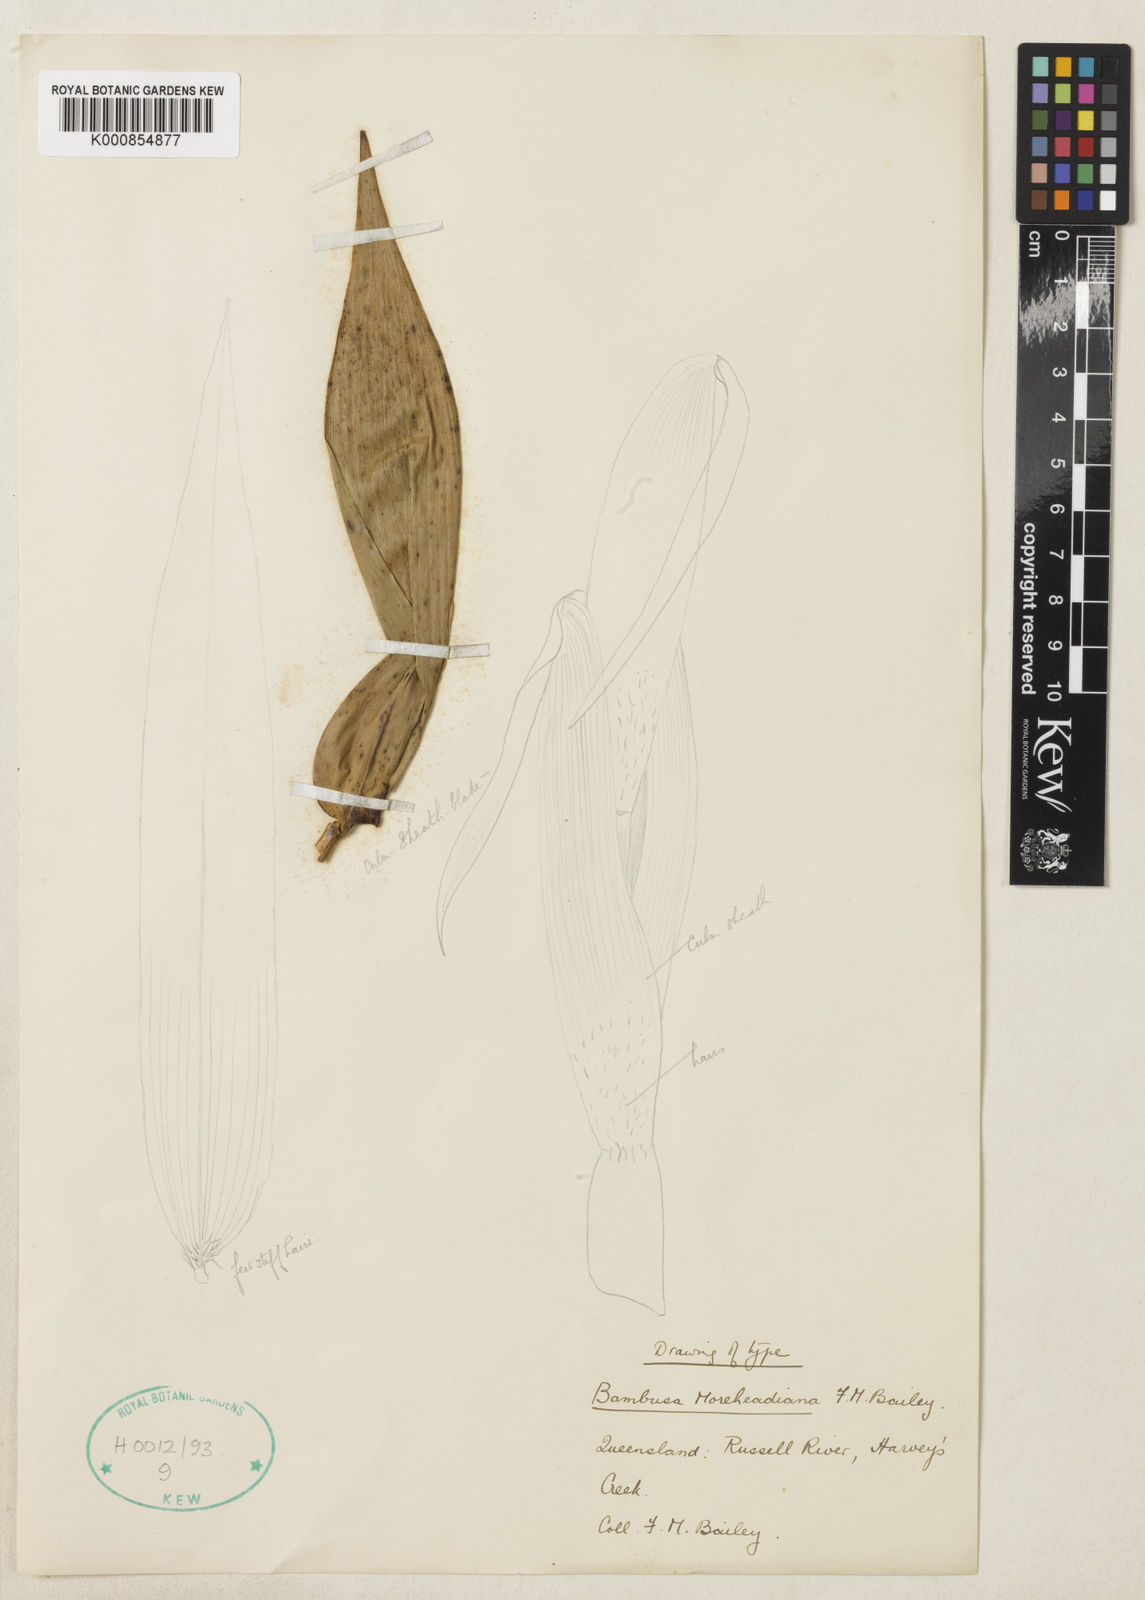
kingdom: Plantae
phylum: Tracheophyta
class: Liliopsida
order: Poales
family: Poaceae
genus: Mullerochloa
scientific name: Mullerochloa moreheadiana
